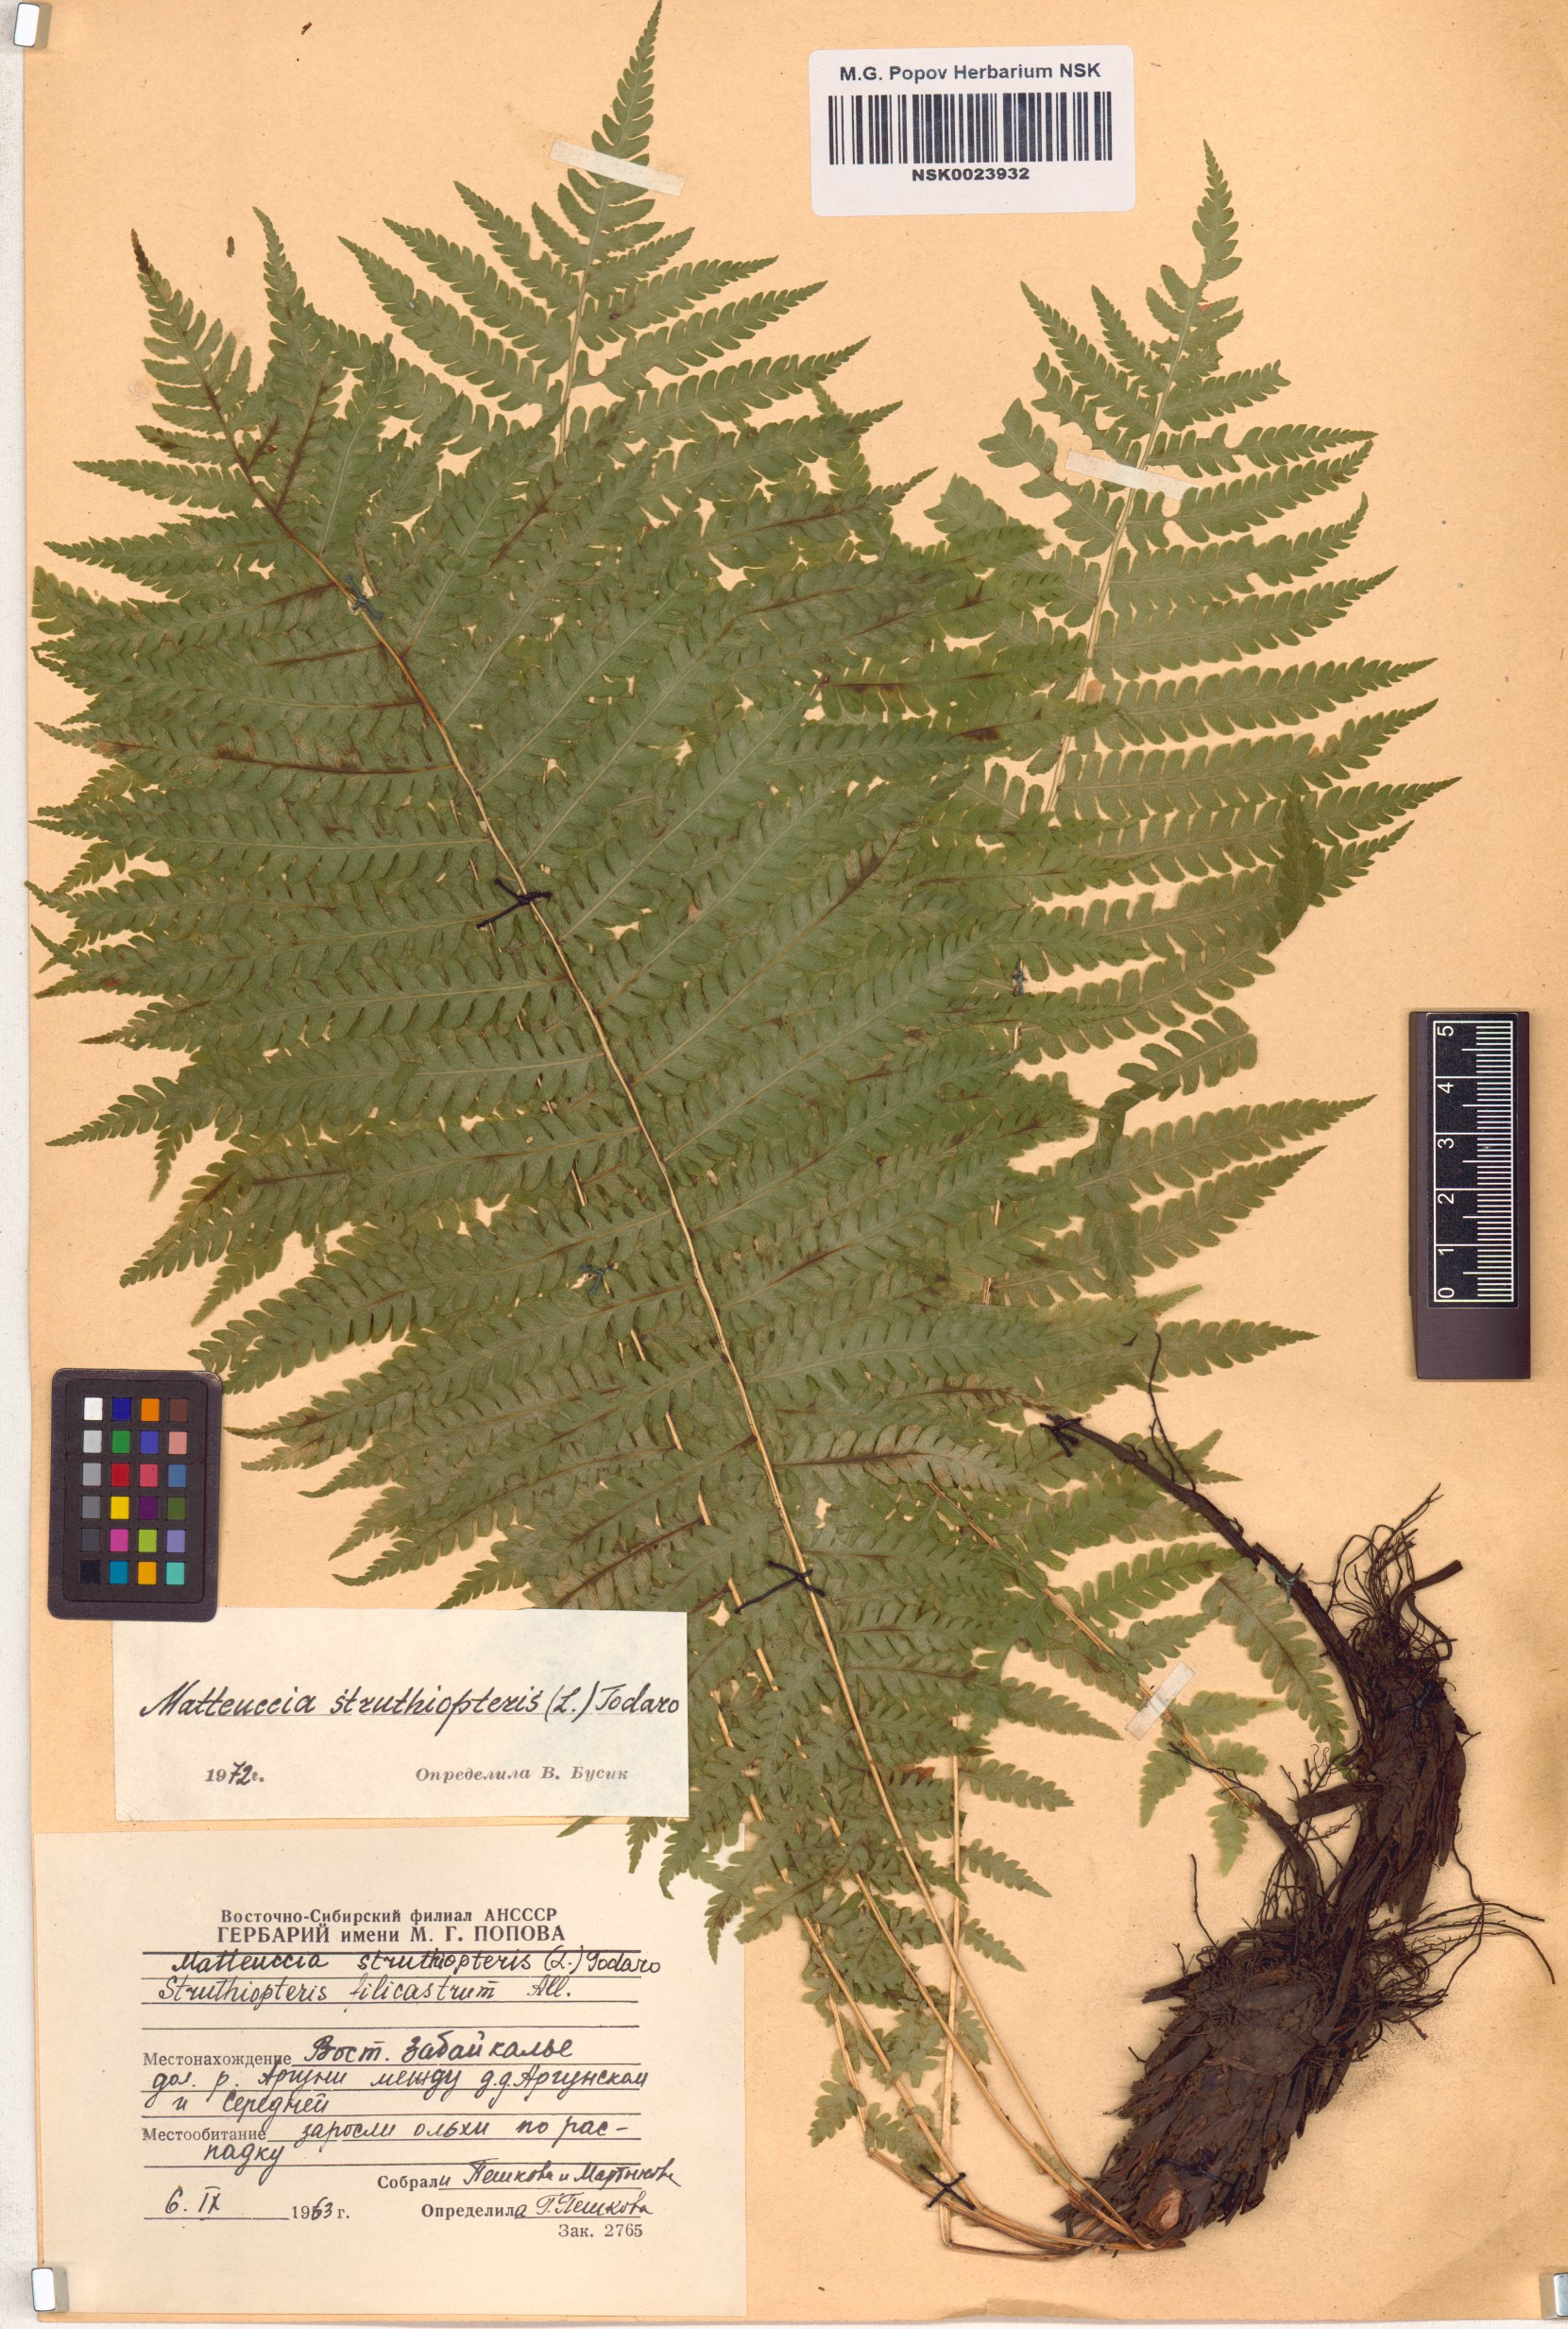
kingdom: Plantae
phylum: Tracheophyta
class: Polypodiopsida
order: Polypodiales
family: Onocleaceae
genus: Matteuccia
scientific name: Matteuccia struthiopteris
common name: Ostrich fern
